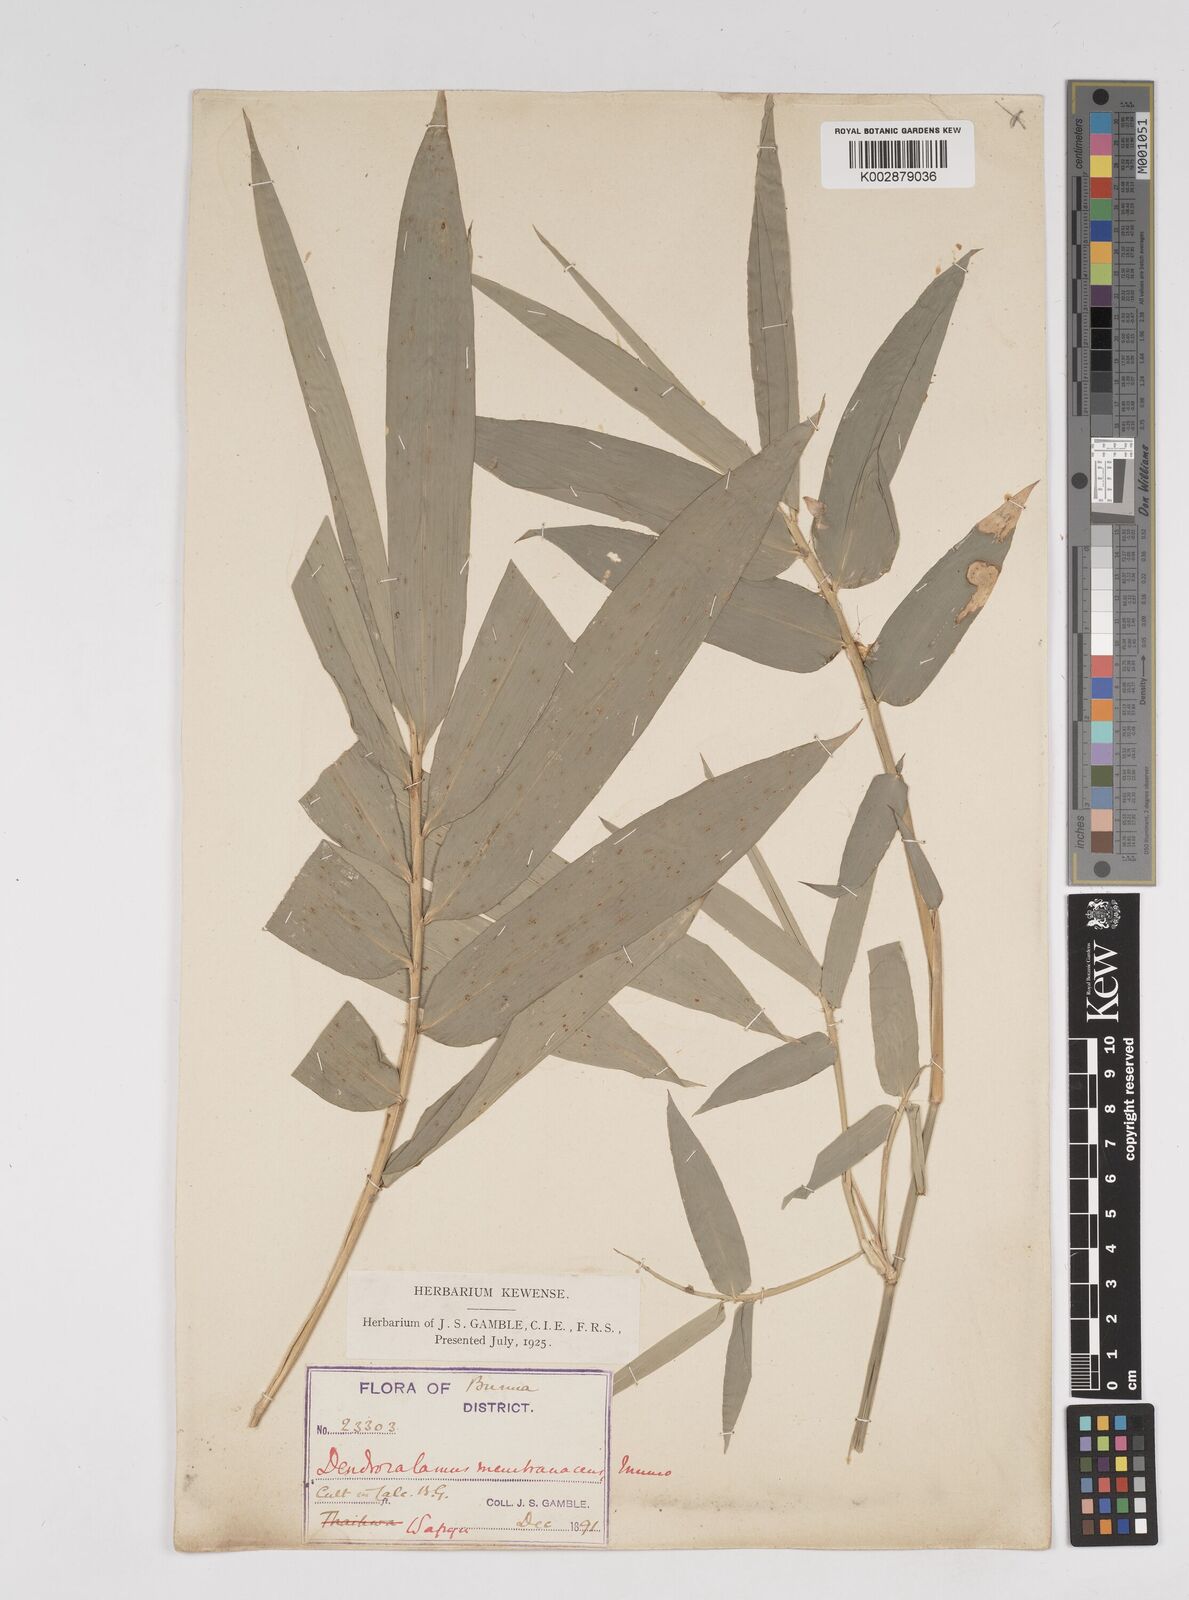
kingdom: Plantae
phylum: Tracheophyta
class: Liliopsida
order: Poales
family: Poaceae
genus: Dendrocalamus
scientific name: Dendrocalamus membranaceus
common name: White bamboo
